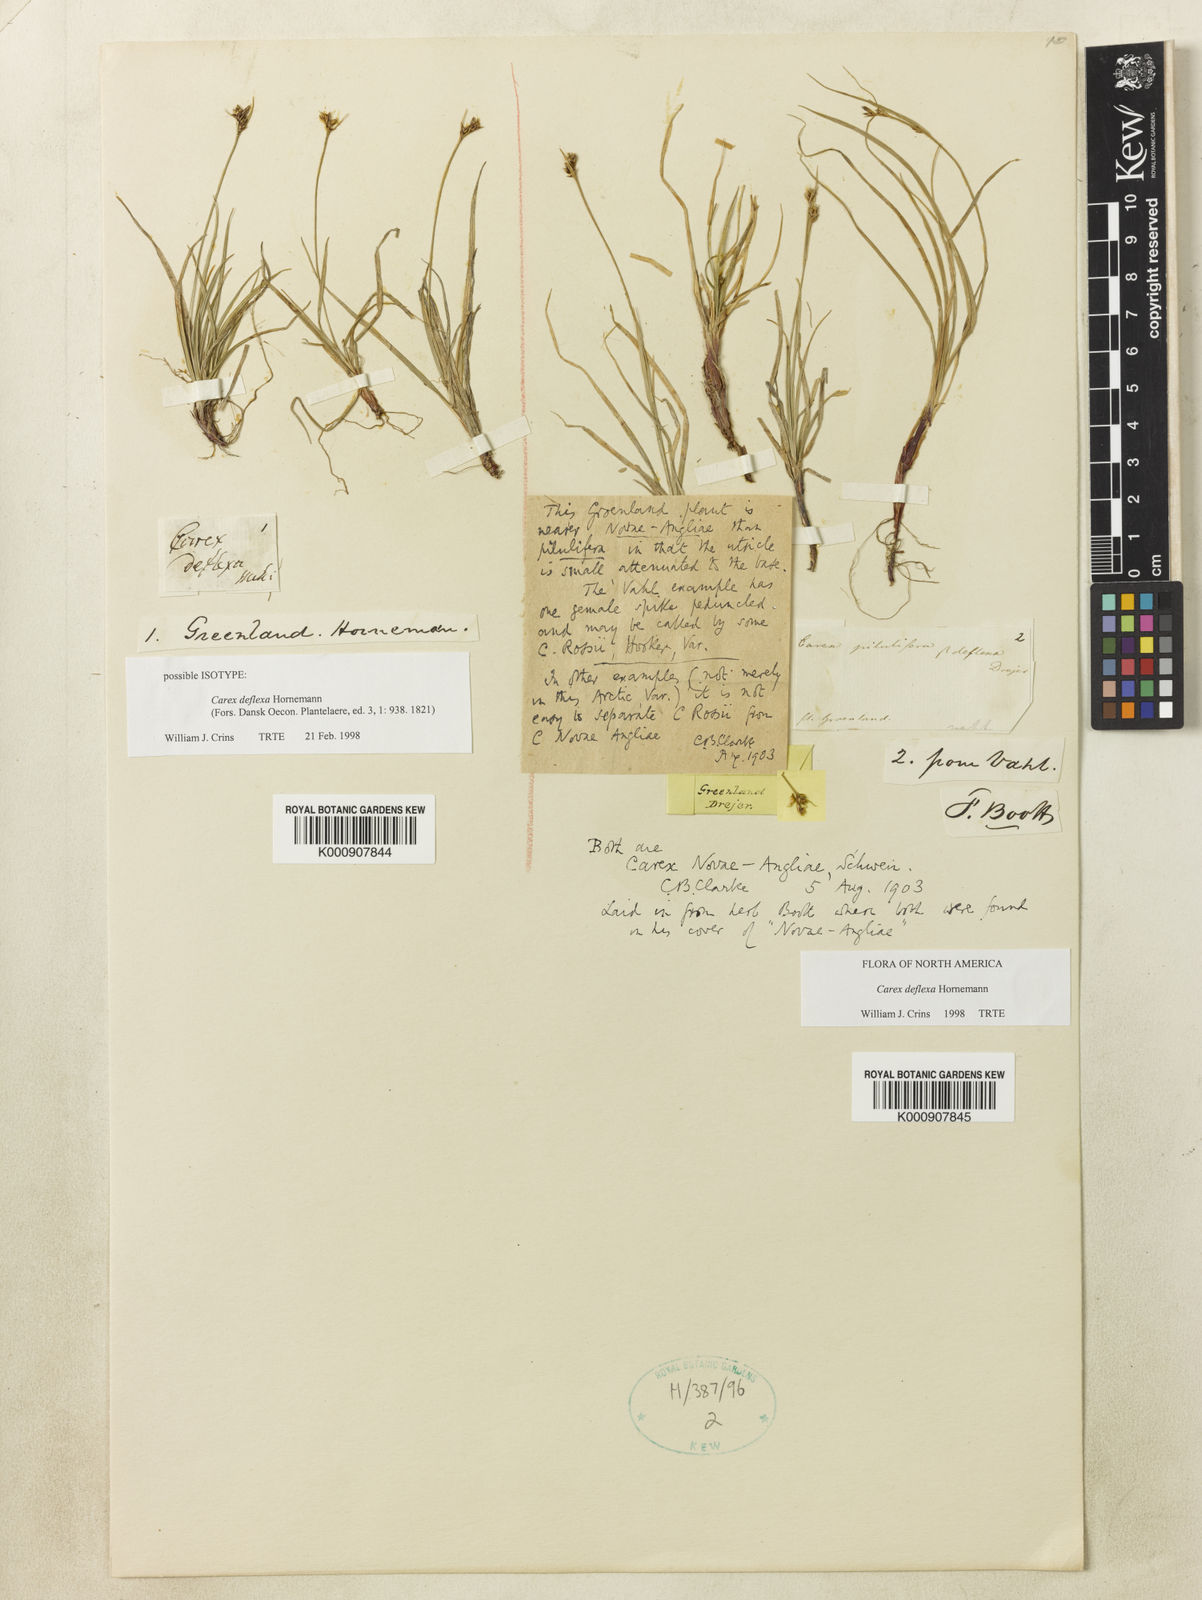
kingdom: Plantae
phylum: Tracheophyta
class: Liliopsida
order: Poales
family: Cyperaceae
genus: Carex
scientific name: Carex deflexa
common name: Bent northern sedge
